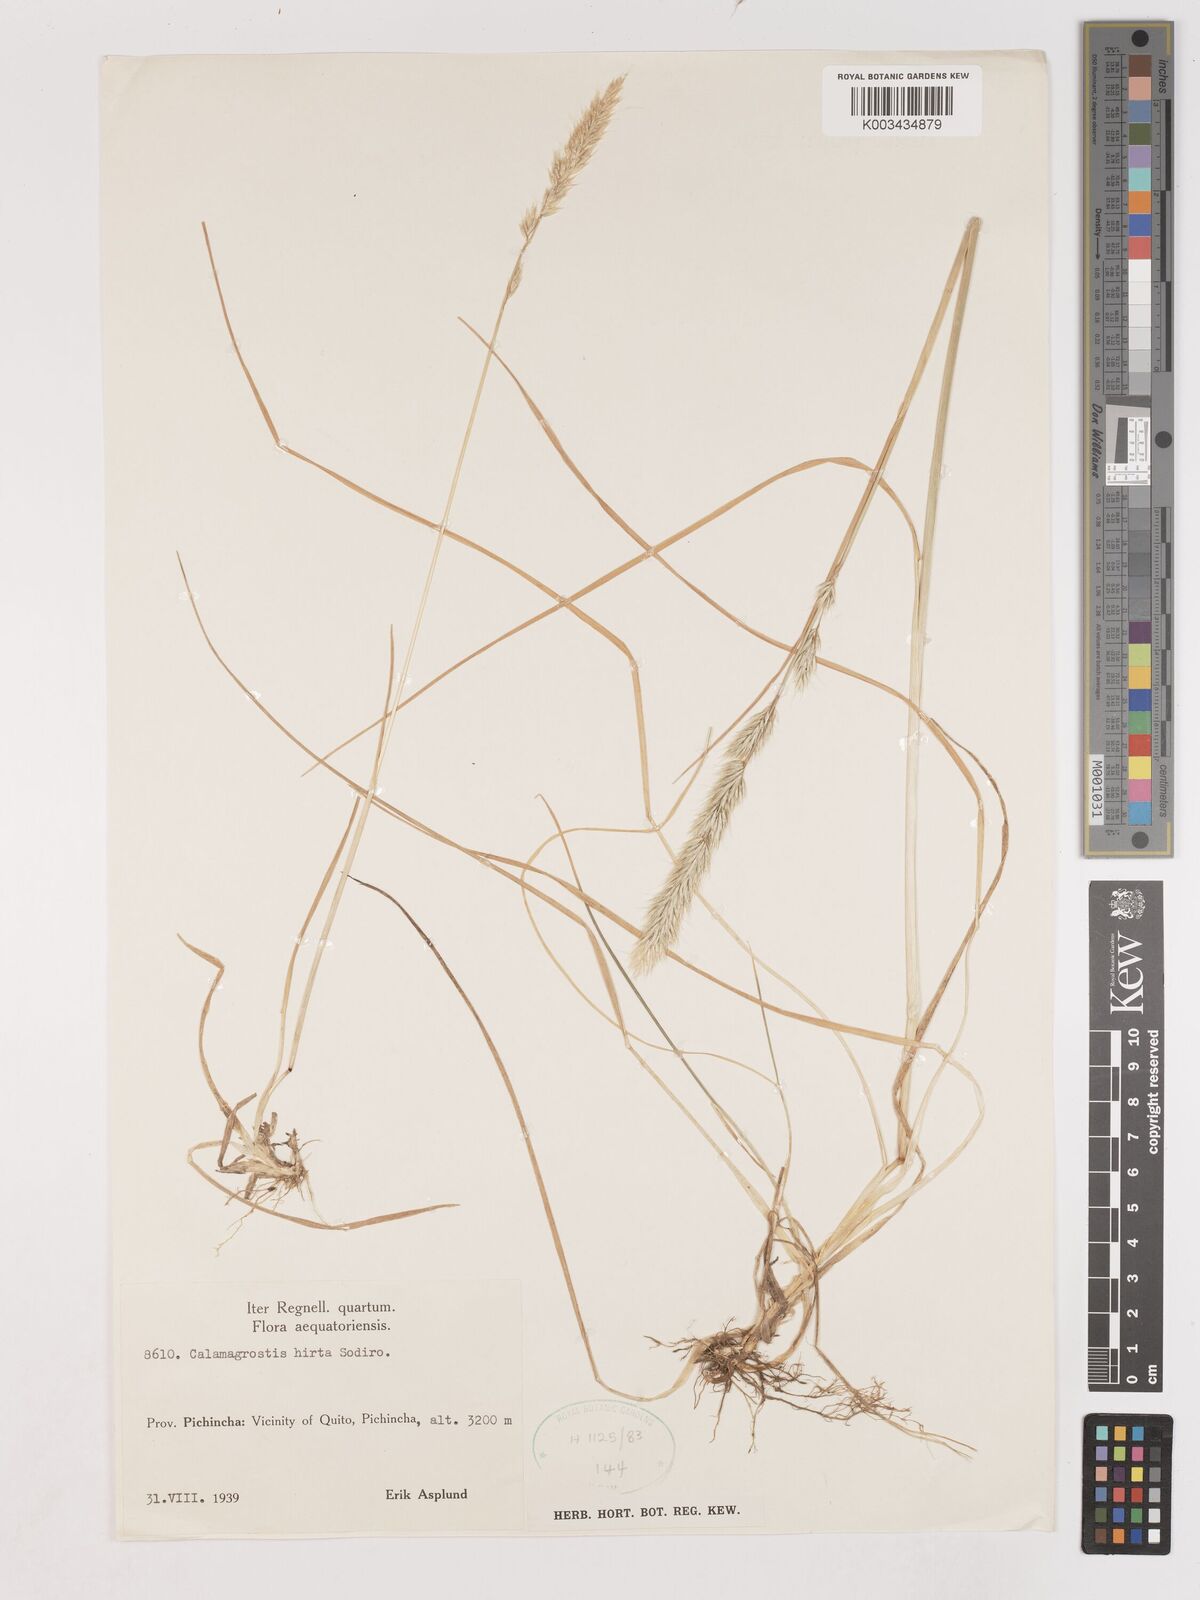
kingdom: Plantae
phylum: Tracheophyta
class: Liliopsida
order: Poales
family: Poaceae
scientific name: Poaceae
